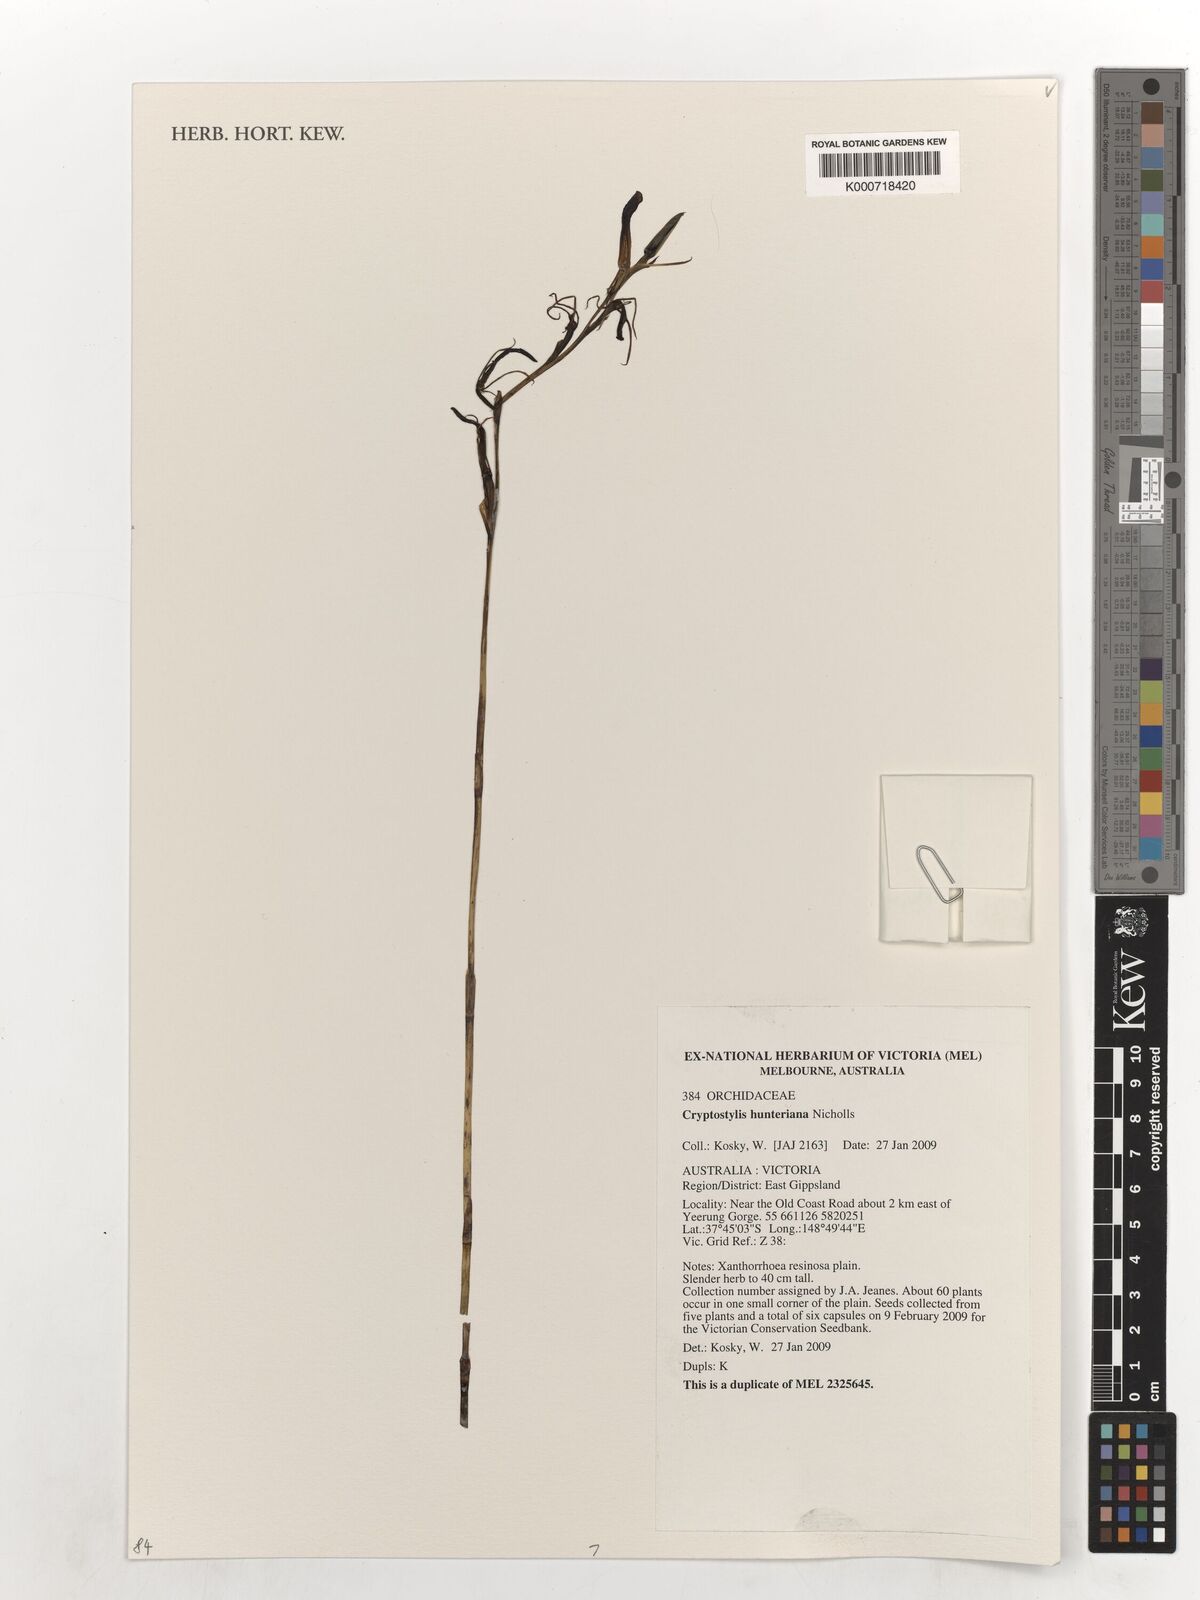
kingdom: Plantae
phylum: Tracheophyta
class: Liliopsida
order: Asparagales
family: Orchidaceae
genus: Cryptostylis
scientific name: Cryptostylis hunteriana
